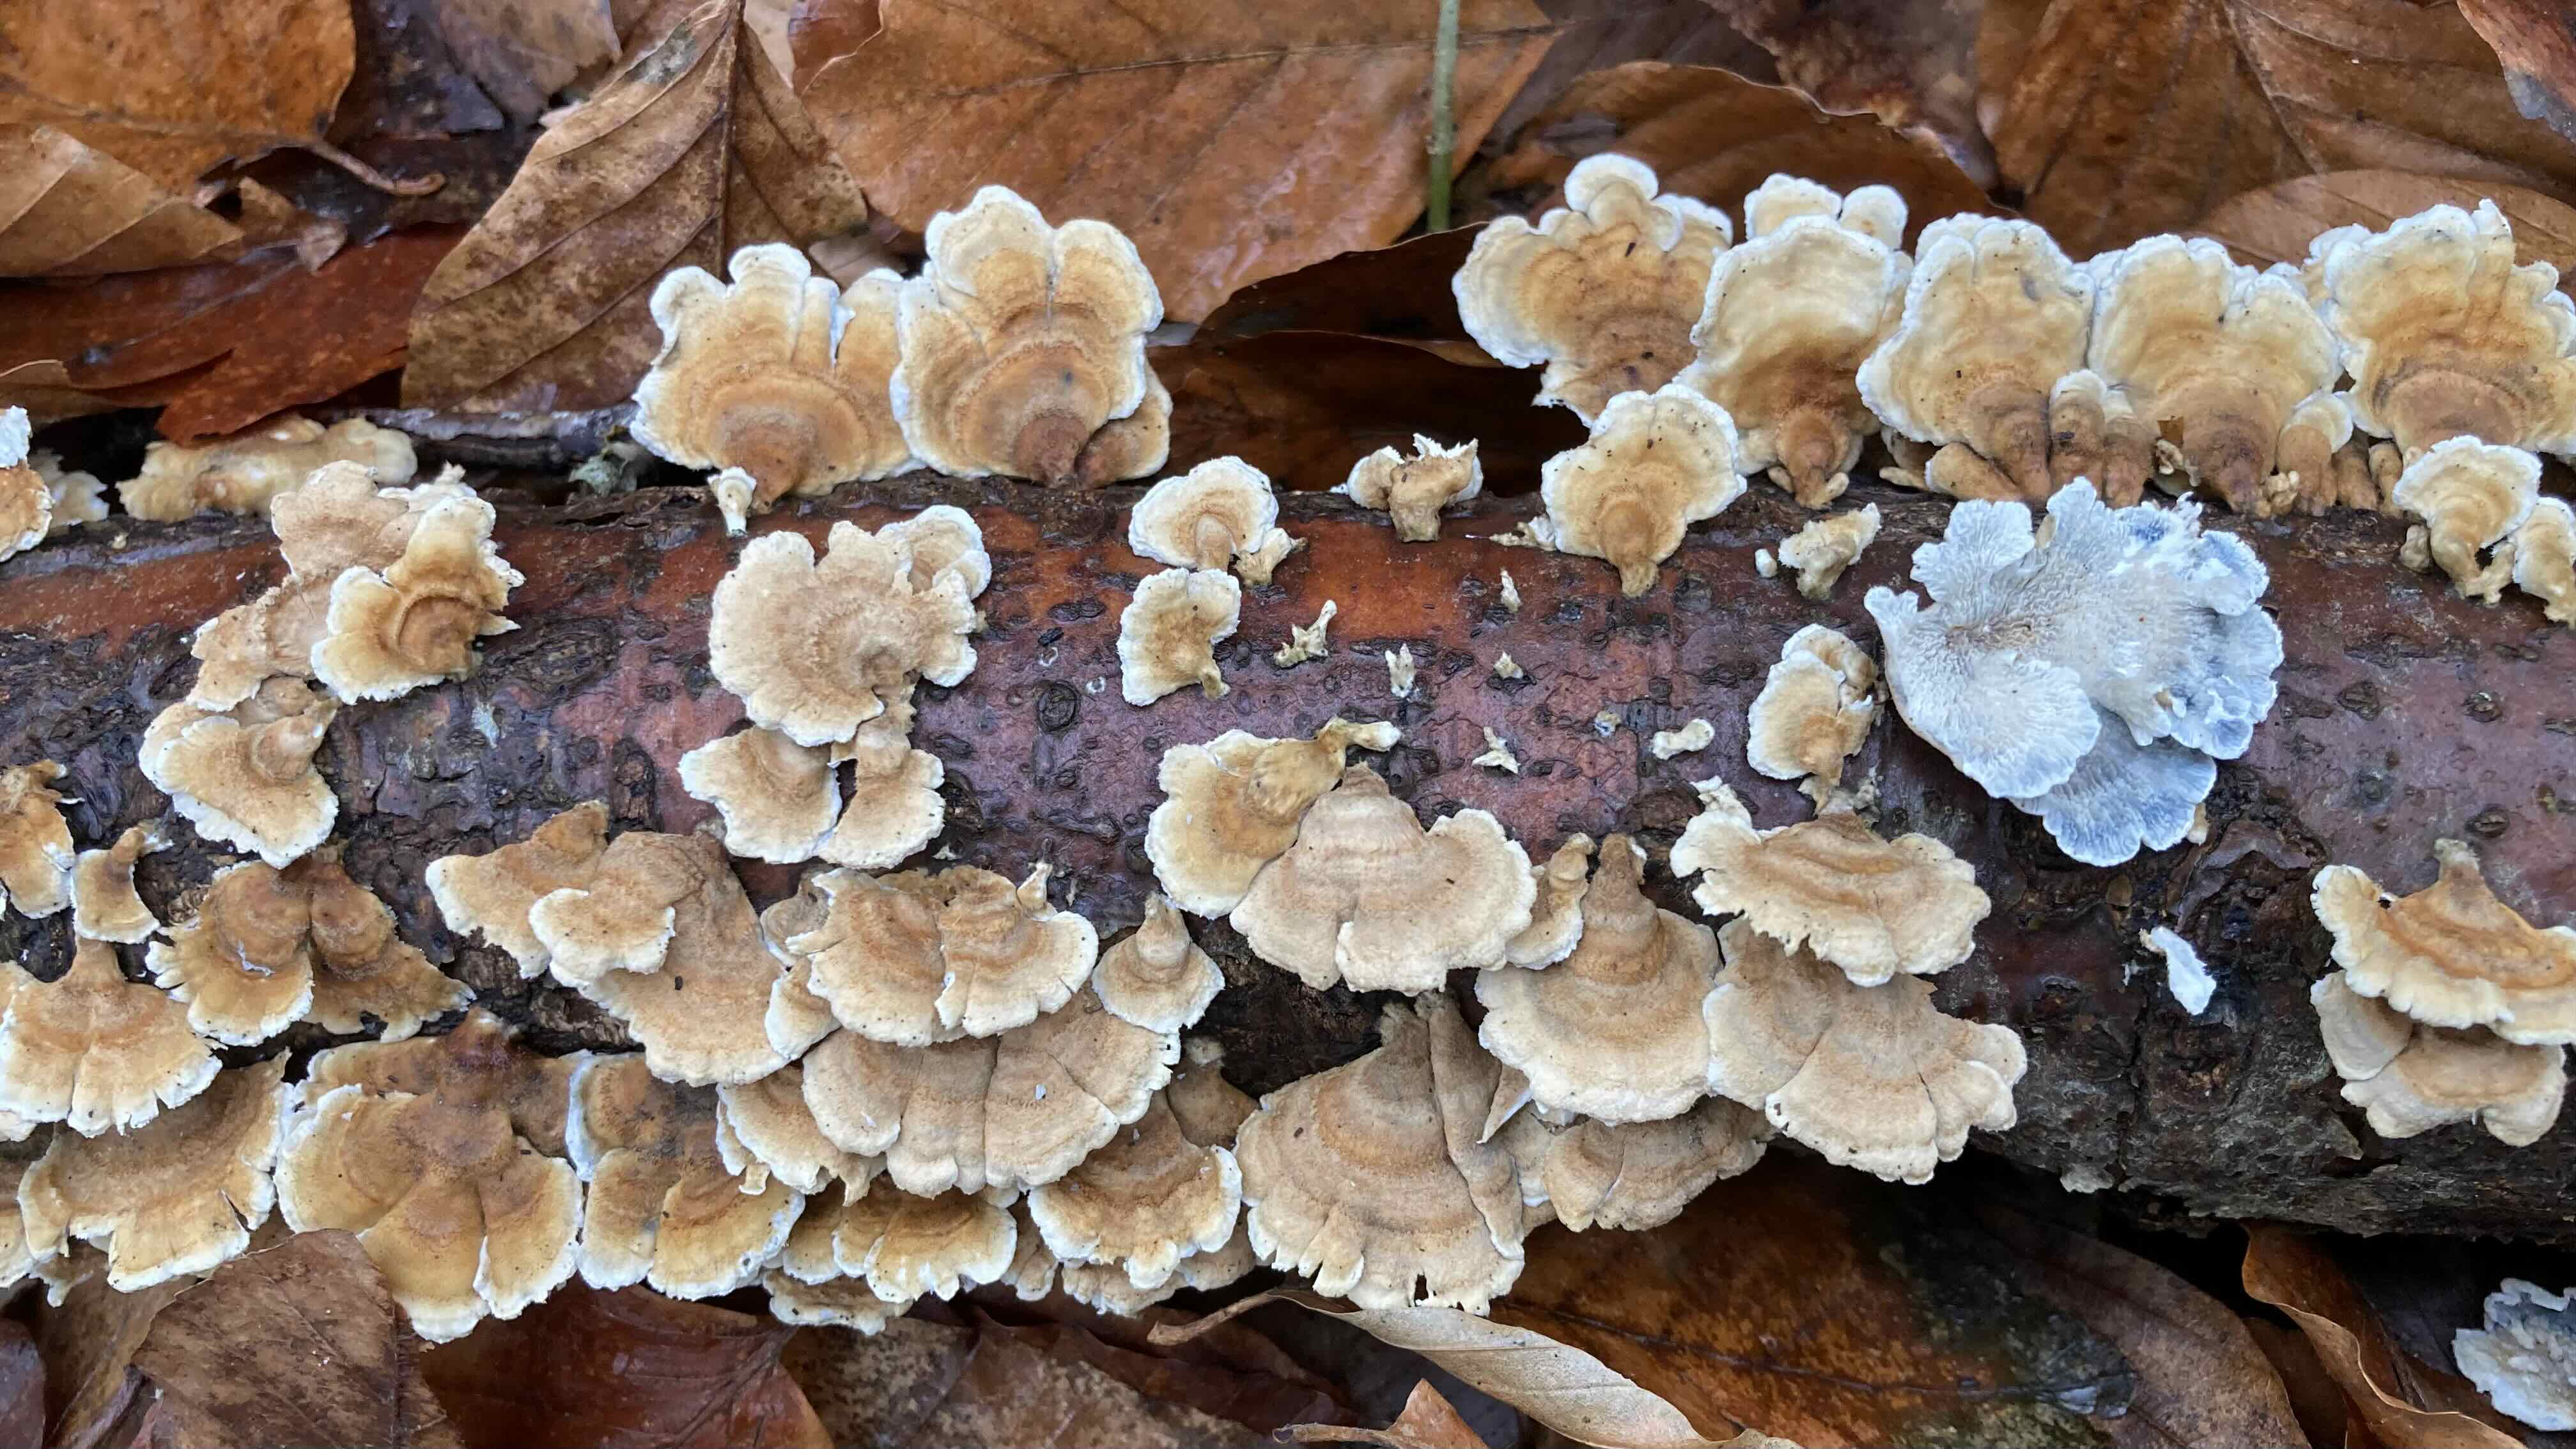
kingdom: Fungi
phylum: Basidiomycota
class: Agaricomycetes
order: Amylocorticiales
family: Amylocorticiaceae
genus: Plicaturopsis
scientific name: Plicaturopsis crispa
